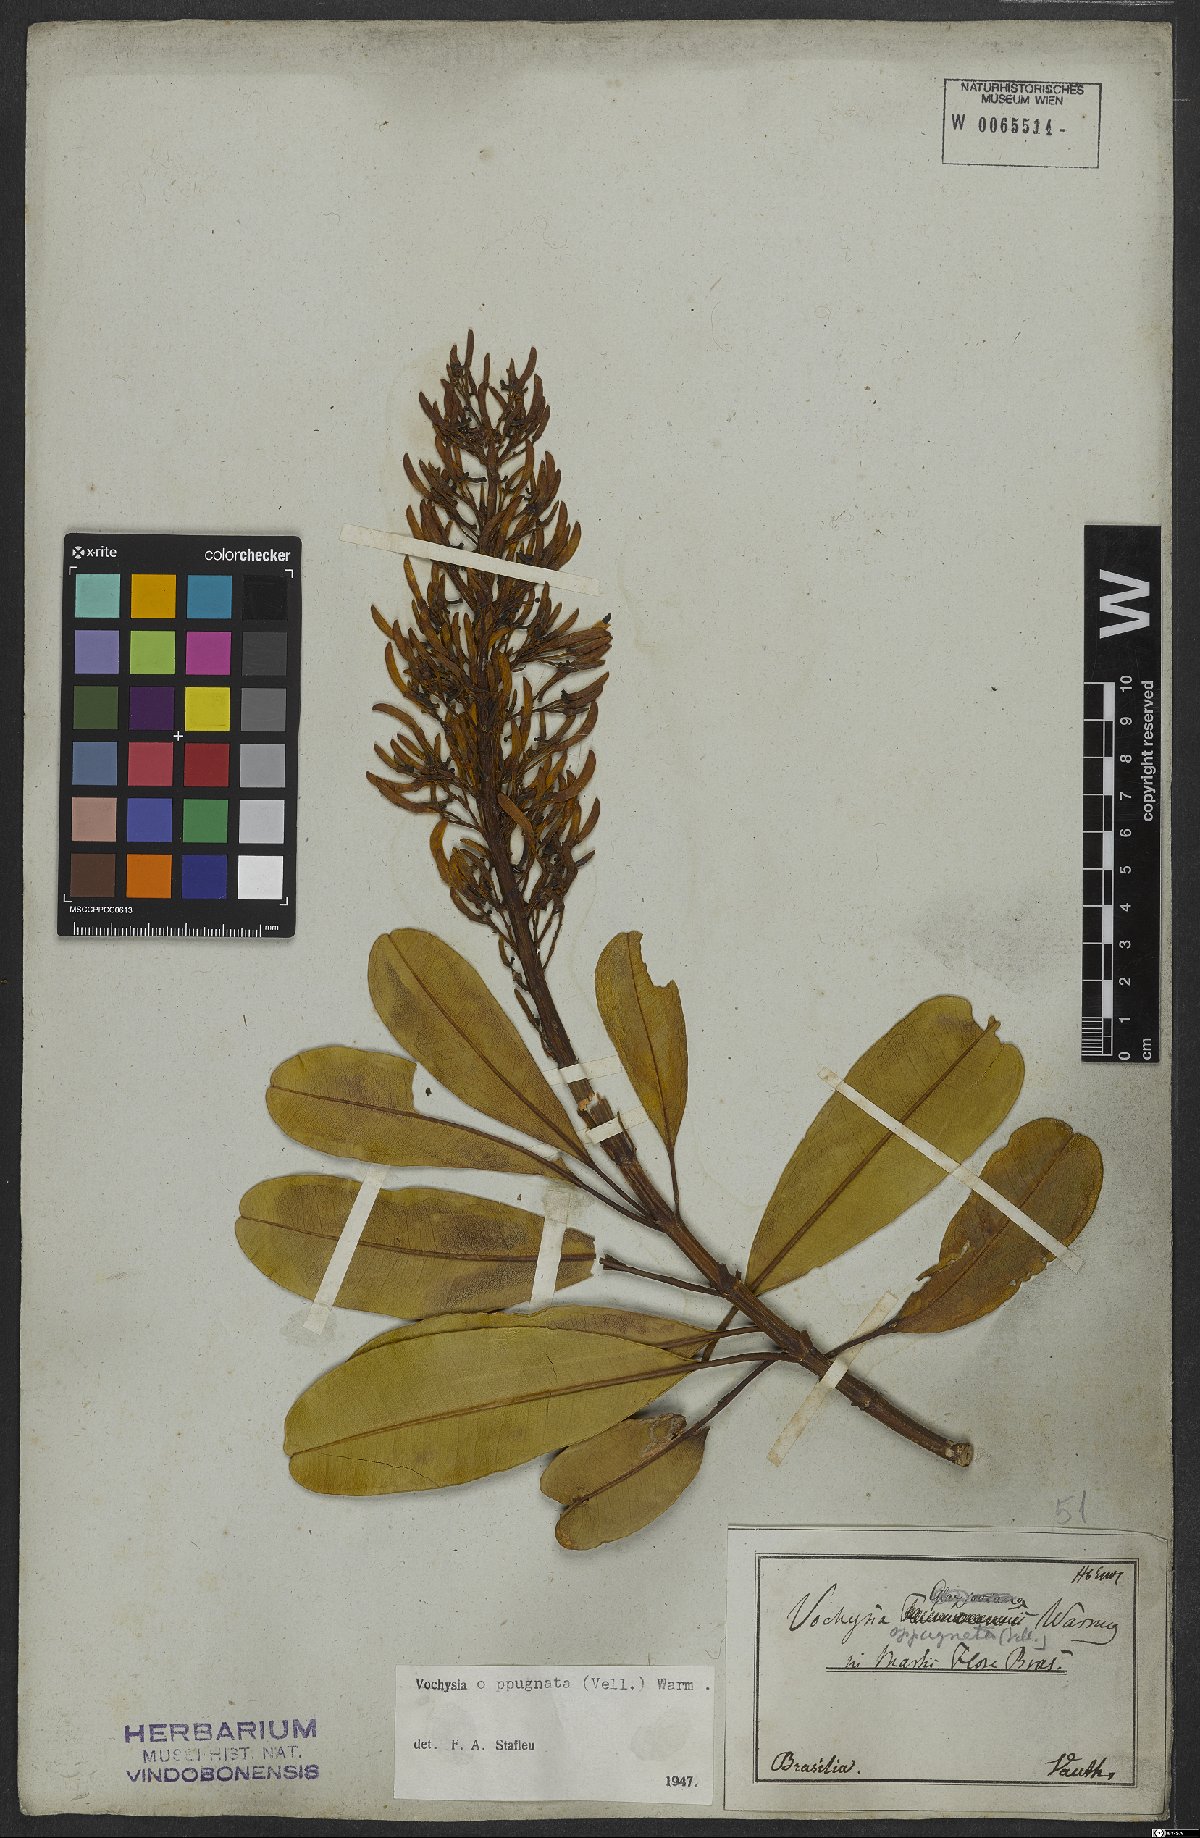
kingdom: Plantae
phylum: Tracheophyta
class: Magnoliopsida
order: Myrtales
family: Vochysiaceae
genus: Vochysia
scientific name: Vochysia oppugnata
